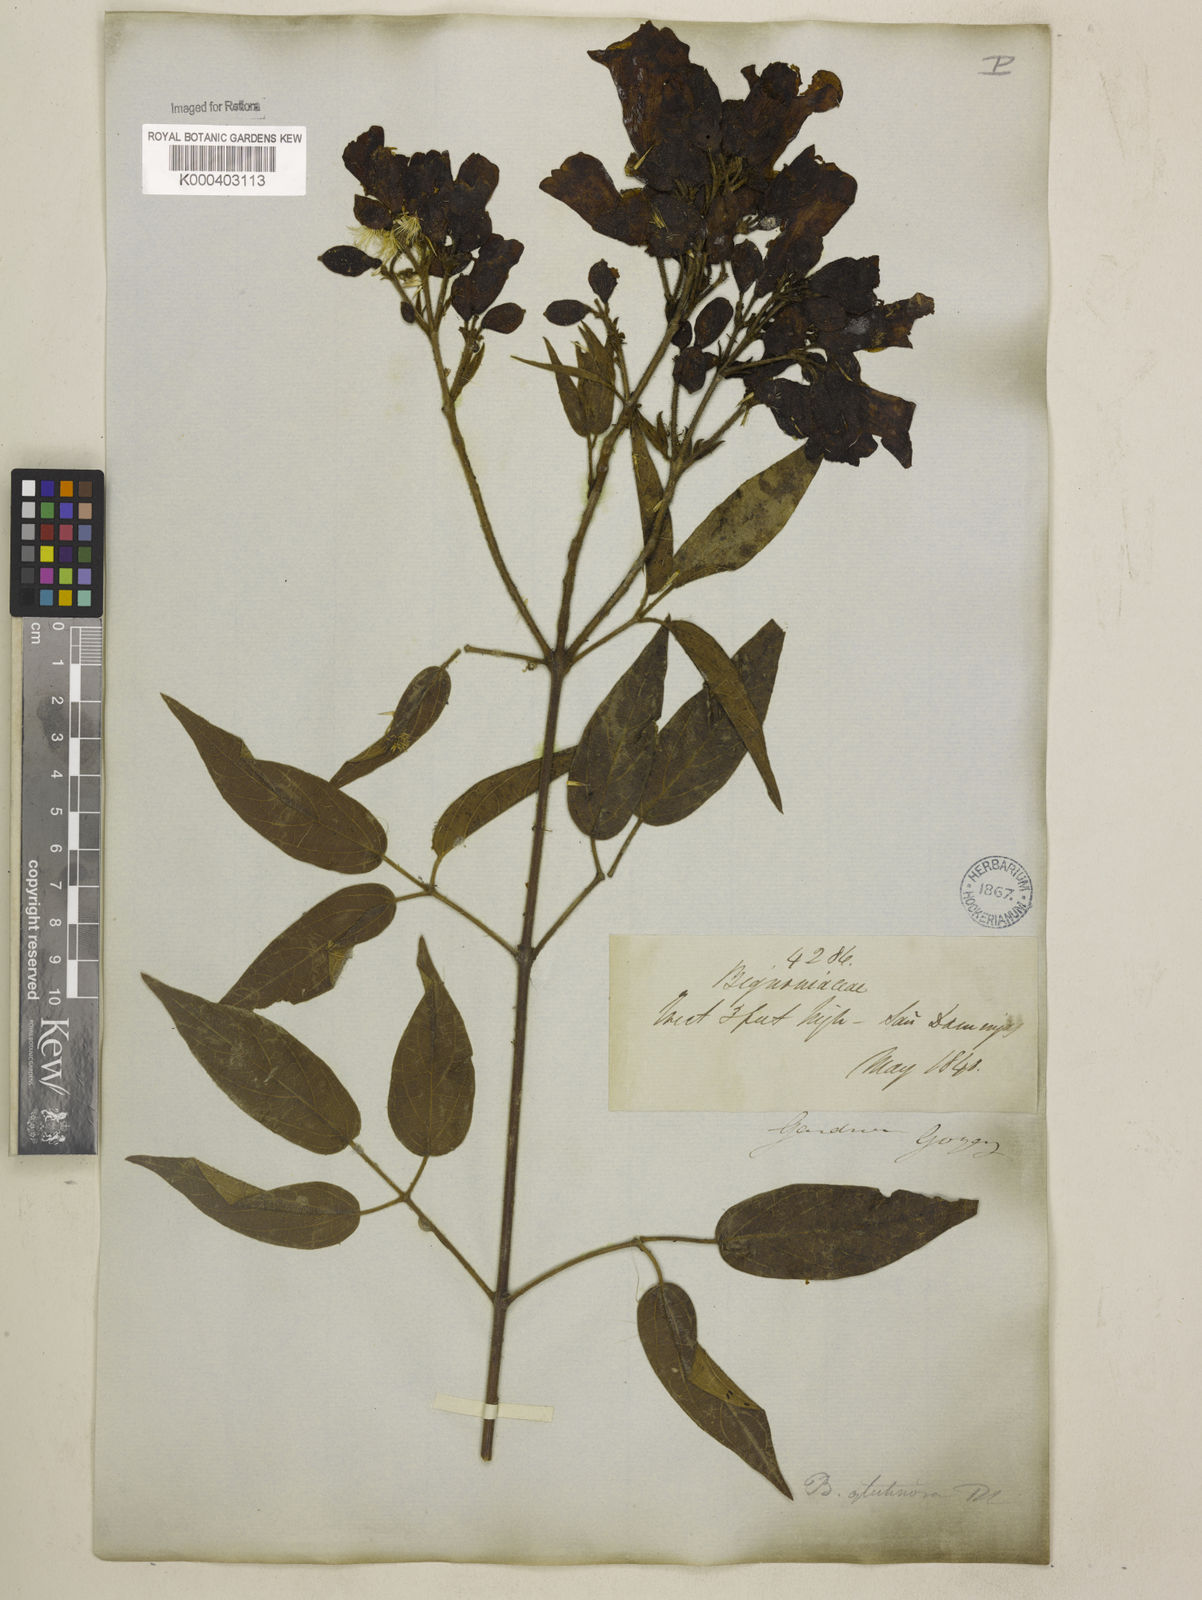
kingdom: Plantae
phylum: Tracheophyta
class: Magnoliopsida
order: Lamiales
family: Bignoniaceae
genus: Cuspidaria
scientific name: Cuspidaria sceptrum
